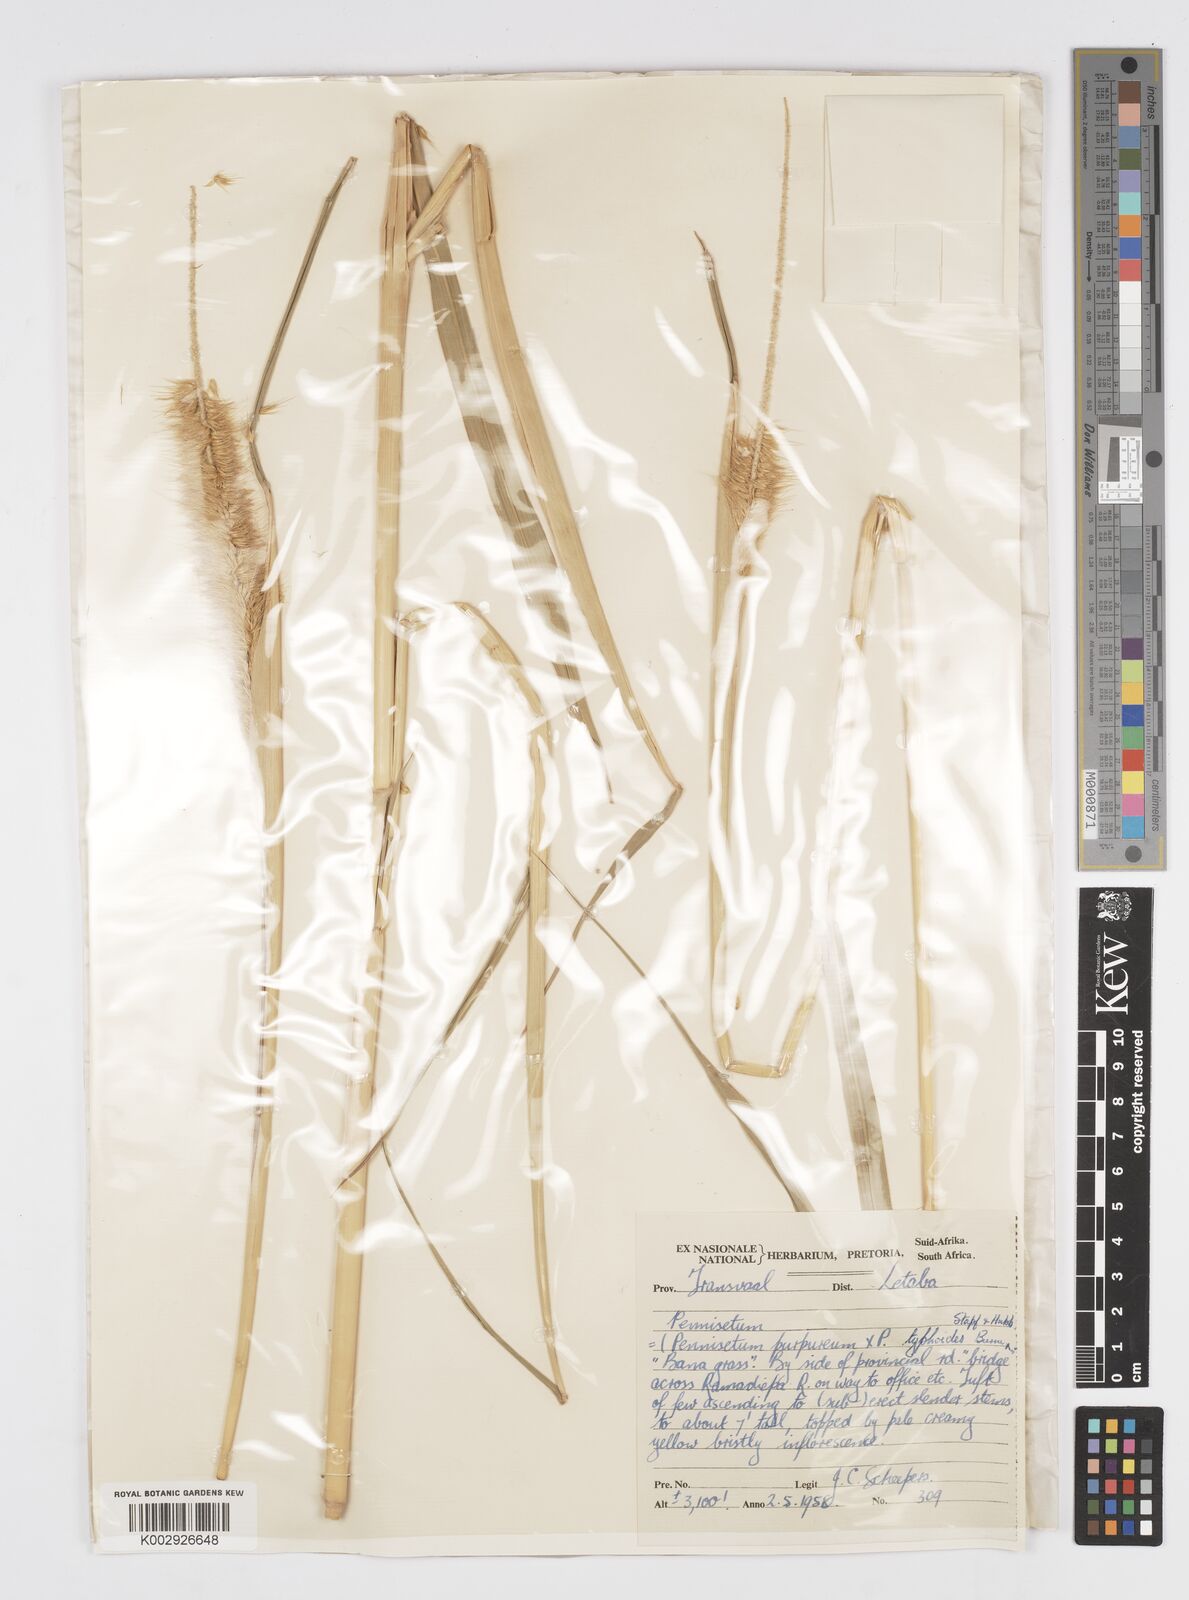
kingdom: Plantae
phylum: Tracheophyta
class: Liliopsida
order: Poales
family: Poaceae
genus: Cenchrus
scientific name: Cenchrus purpureus
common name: Elephant grass
